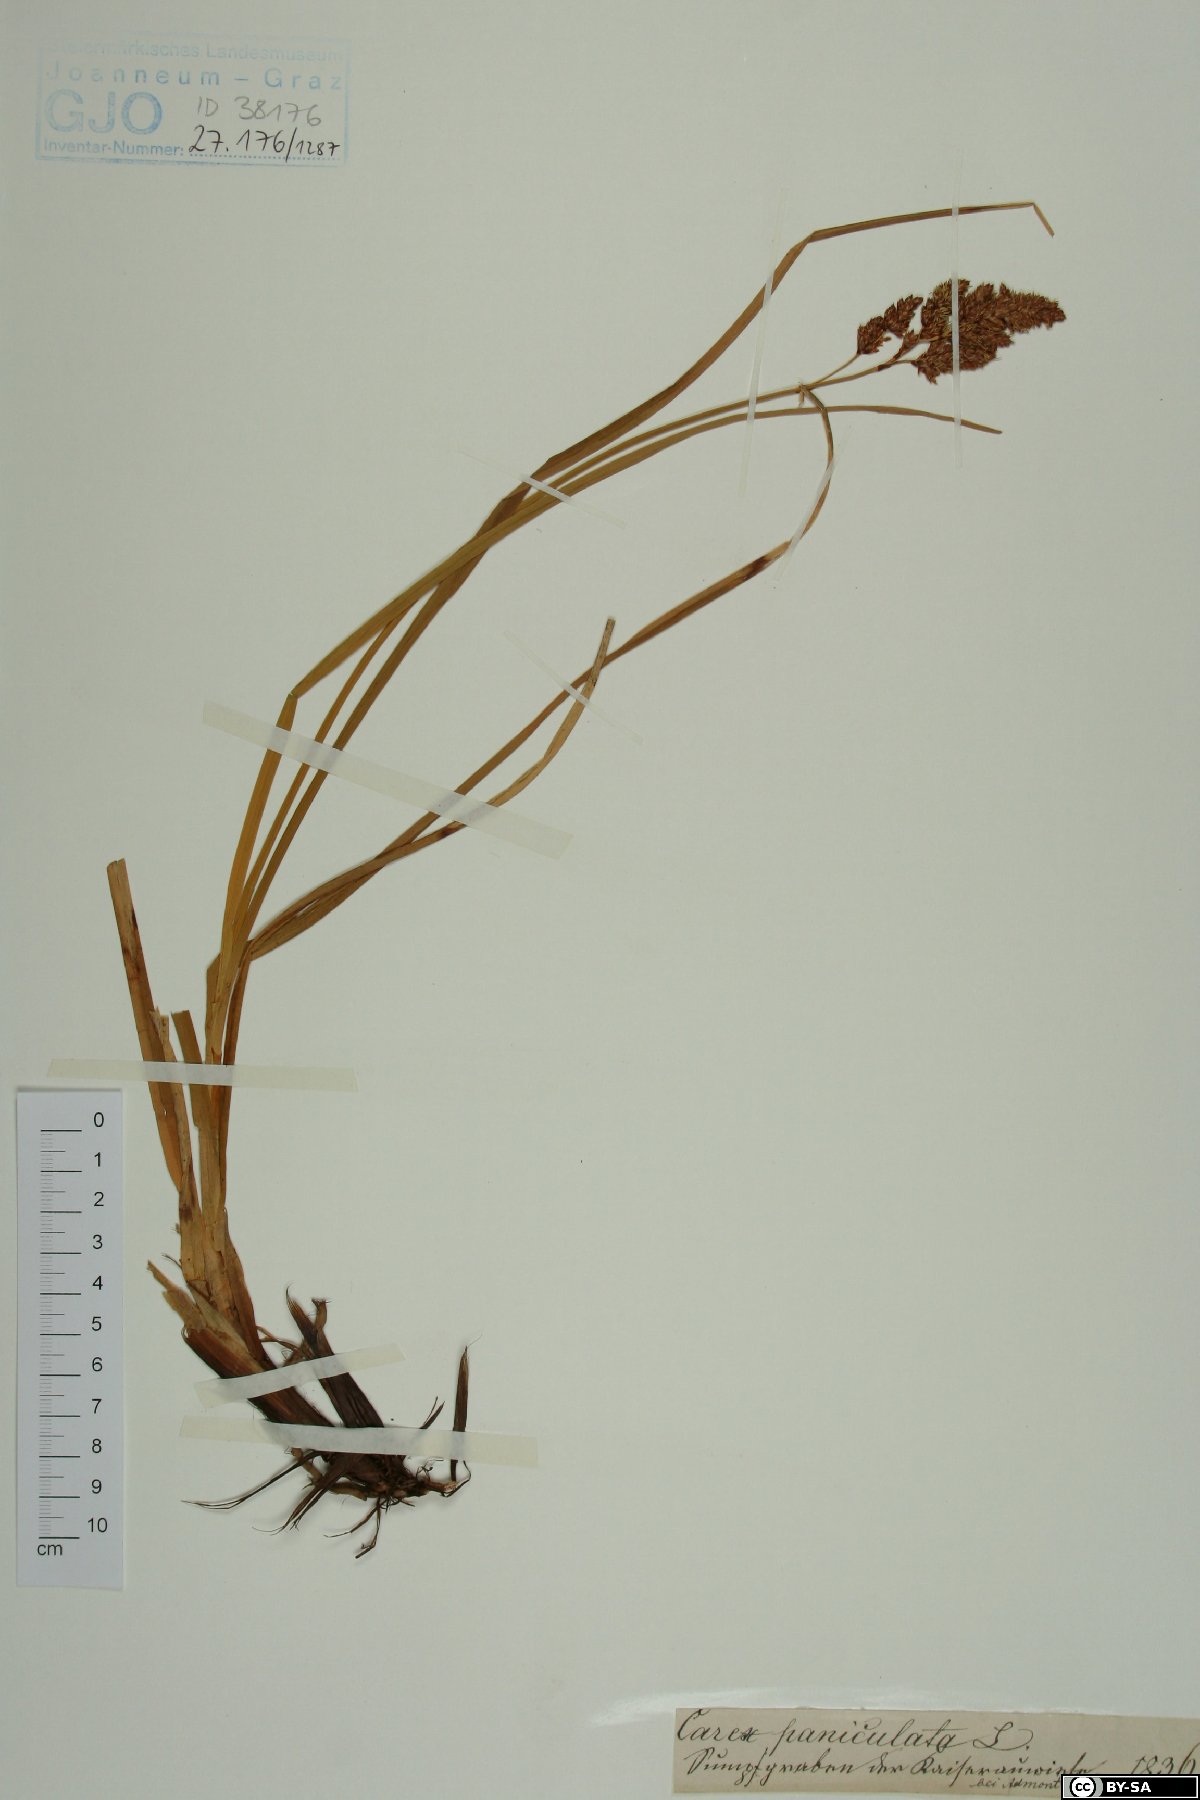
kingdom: Plantae
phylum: Tracheophyta
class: Liliopsida
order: Poales
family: Cyperaceae
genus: Carex
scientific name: Carex paniculata
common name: Greater tussock-sedge
